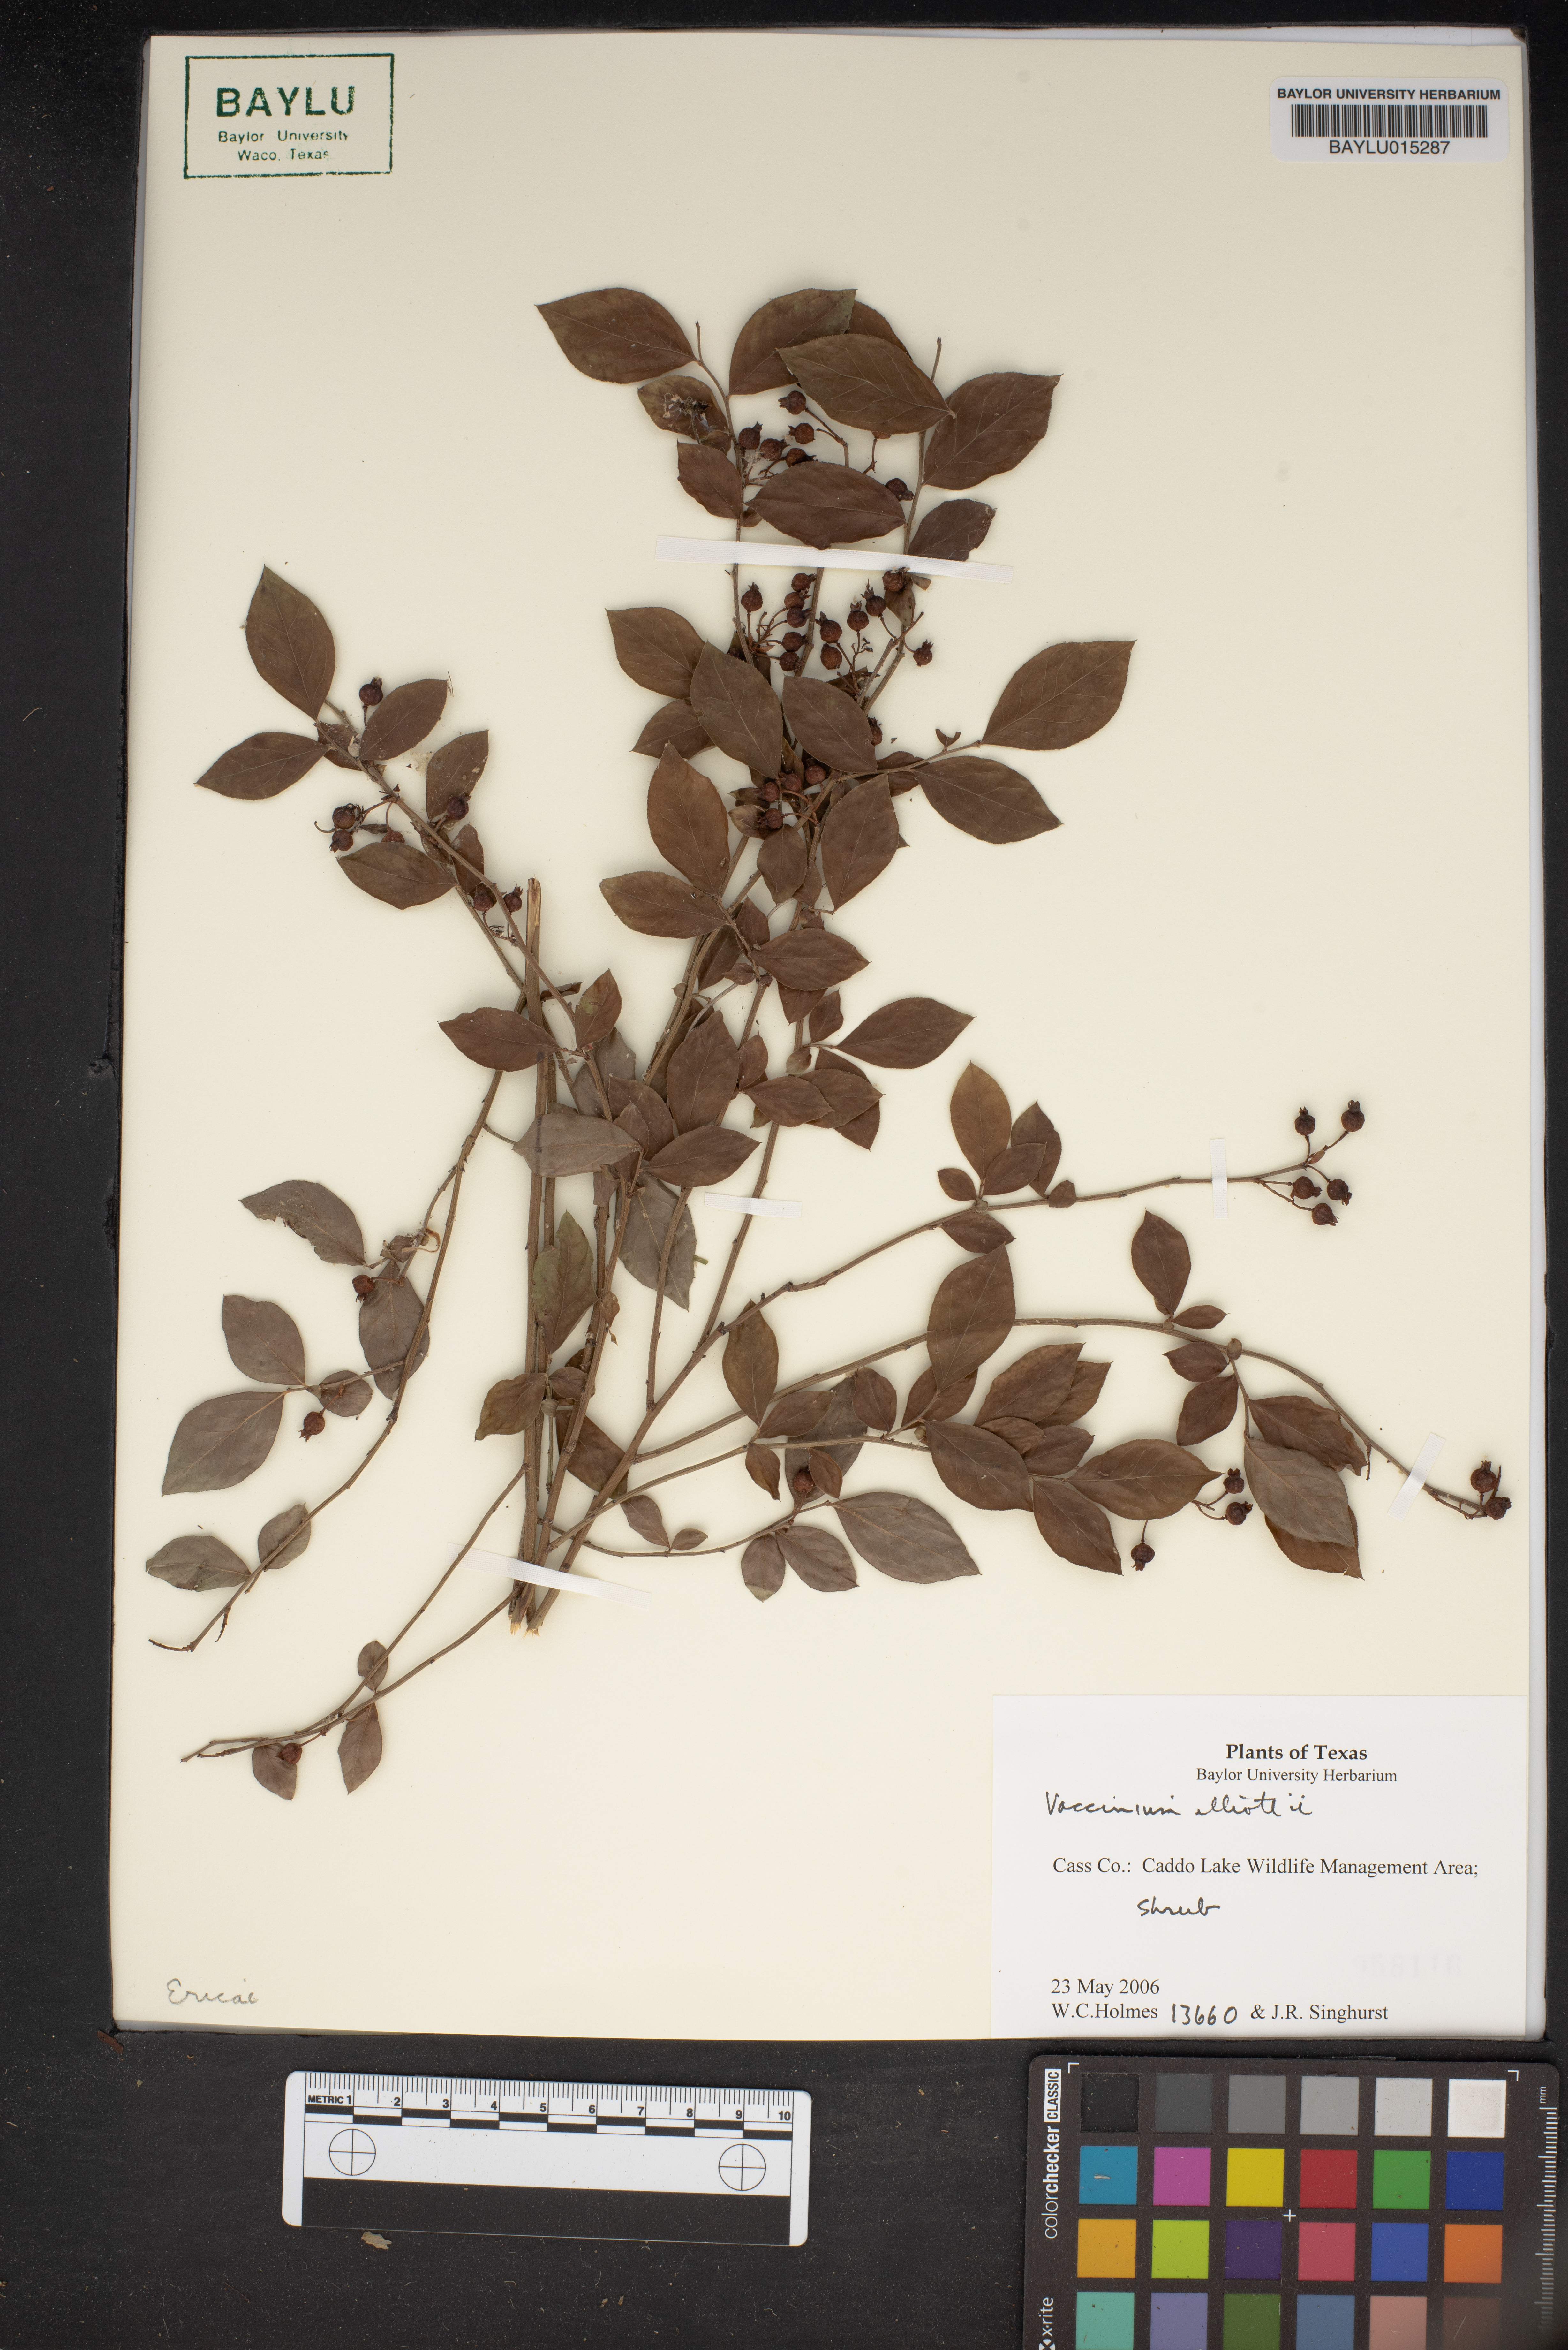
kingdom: Plantae
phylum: Tracheophyta
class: Magnoliopsida
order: Ericales
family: Ericaceae
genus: Vaccinium
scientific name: Vaccinium corymbosum
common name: Blueberry
